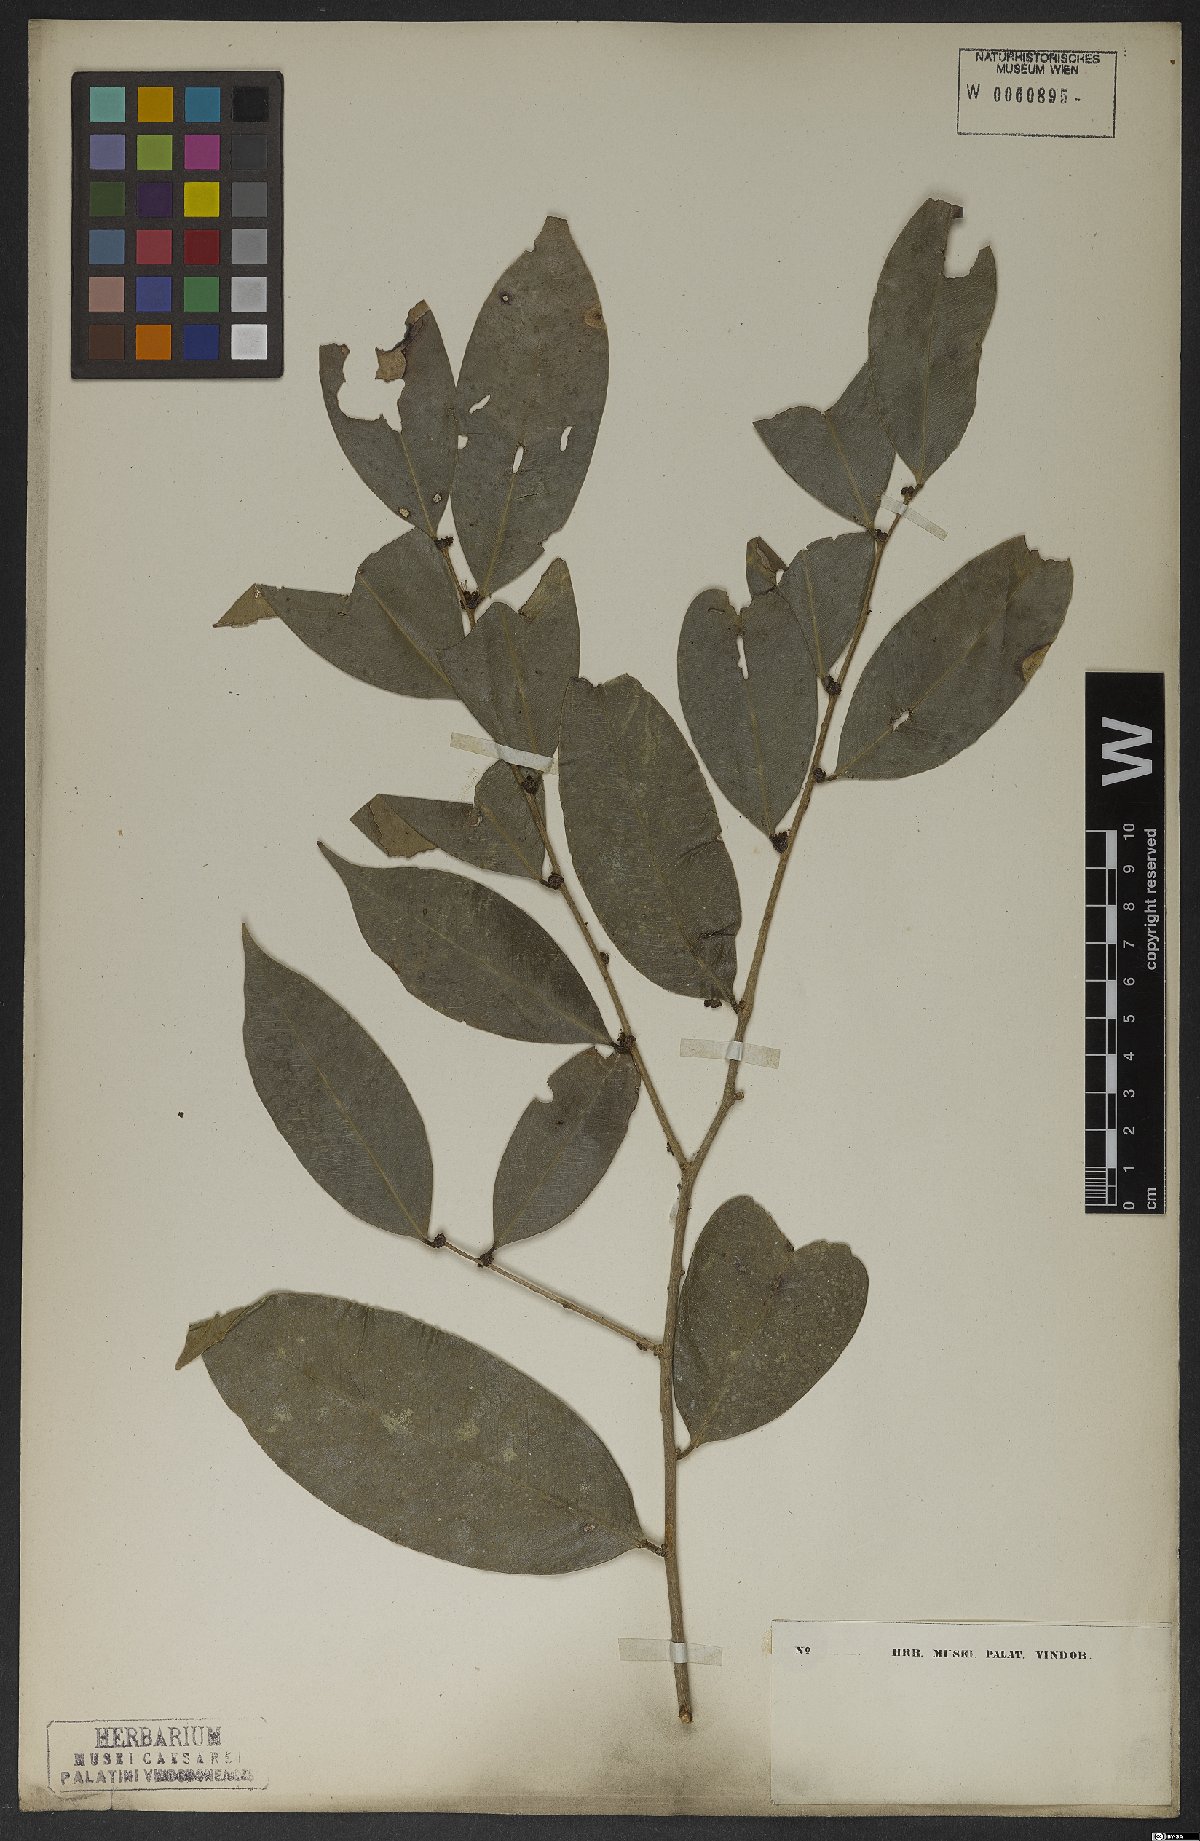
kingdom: Plantae
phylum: Tracheophyta
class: Magnoliopsida
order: Malpighiales
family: Phyllanthaceae
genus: Jablonskia
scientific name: Jablonskia congesta
